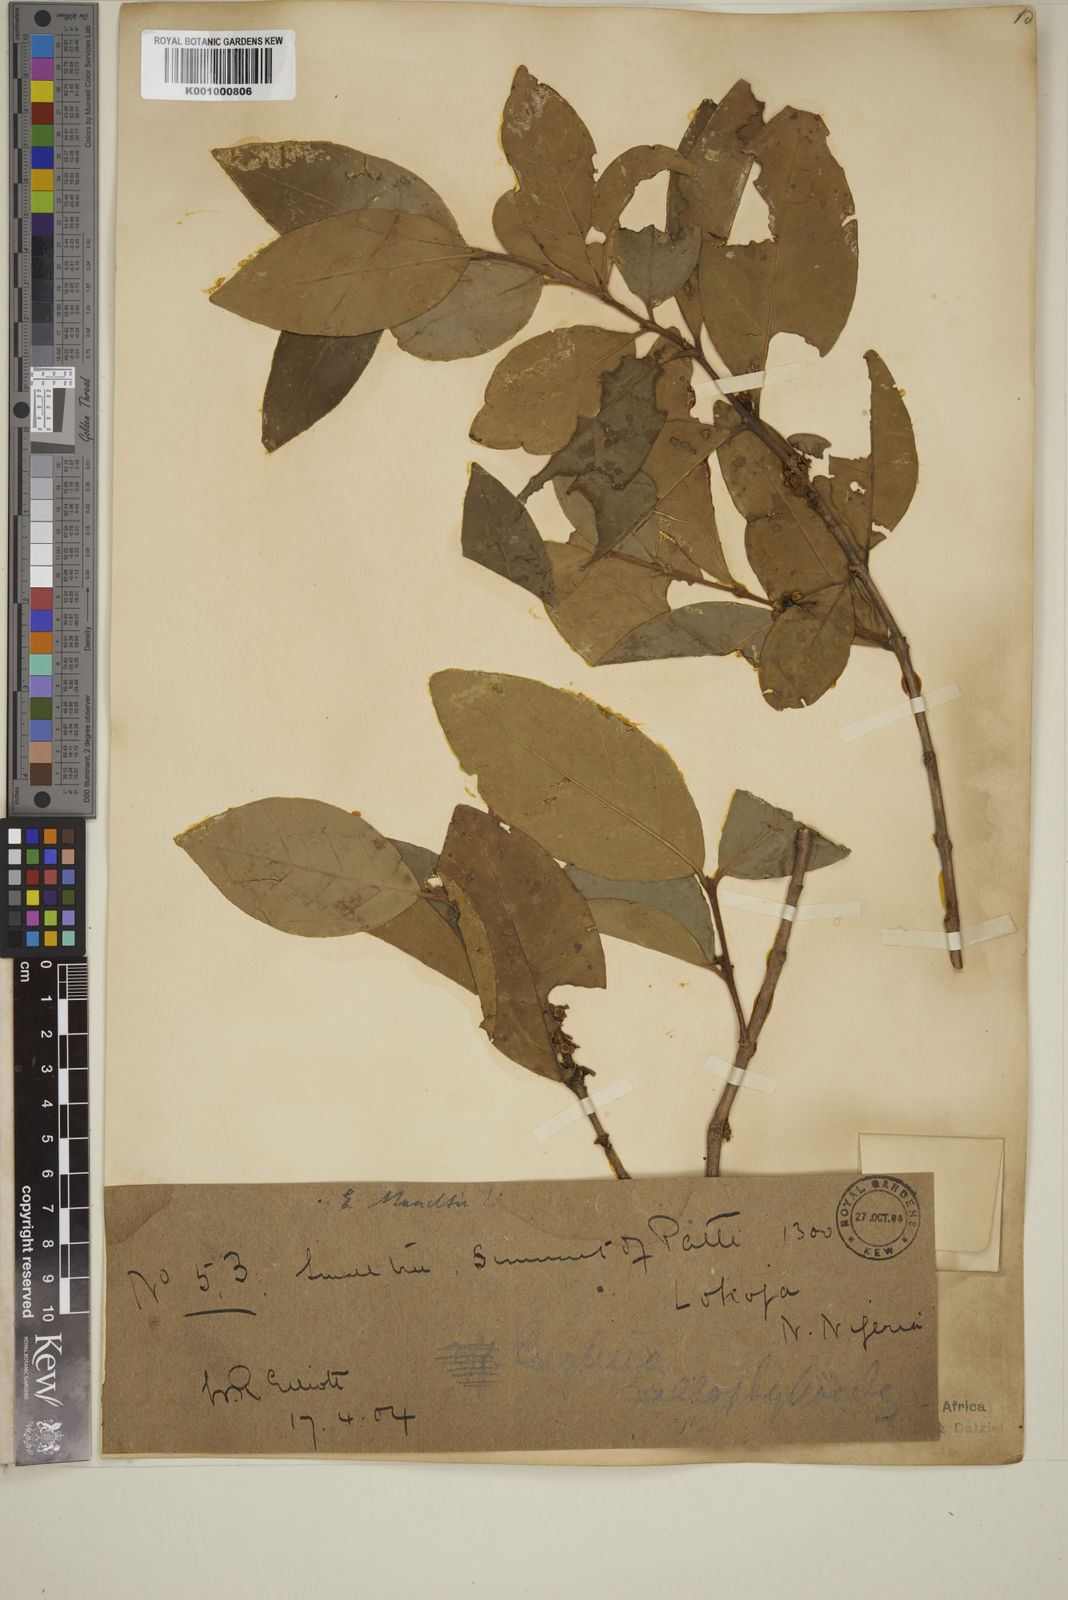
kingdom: Plantae
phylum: Tracheophyta
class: Magnoliopsida
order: Myrtales
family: Myrtaceae
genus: Eugenia
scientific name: Eugenia calophylloides
